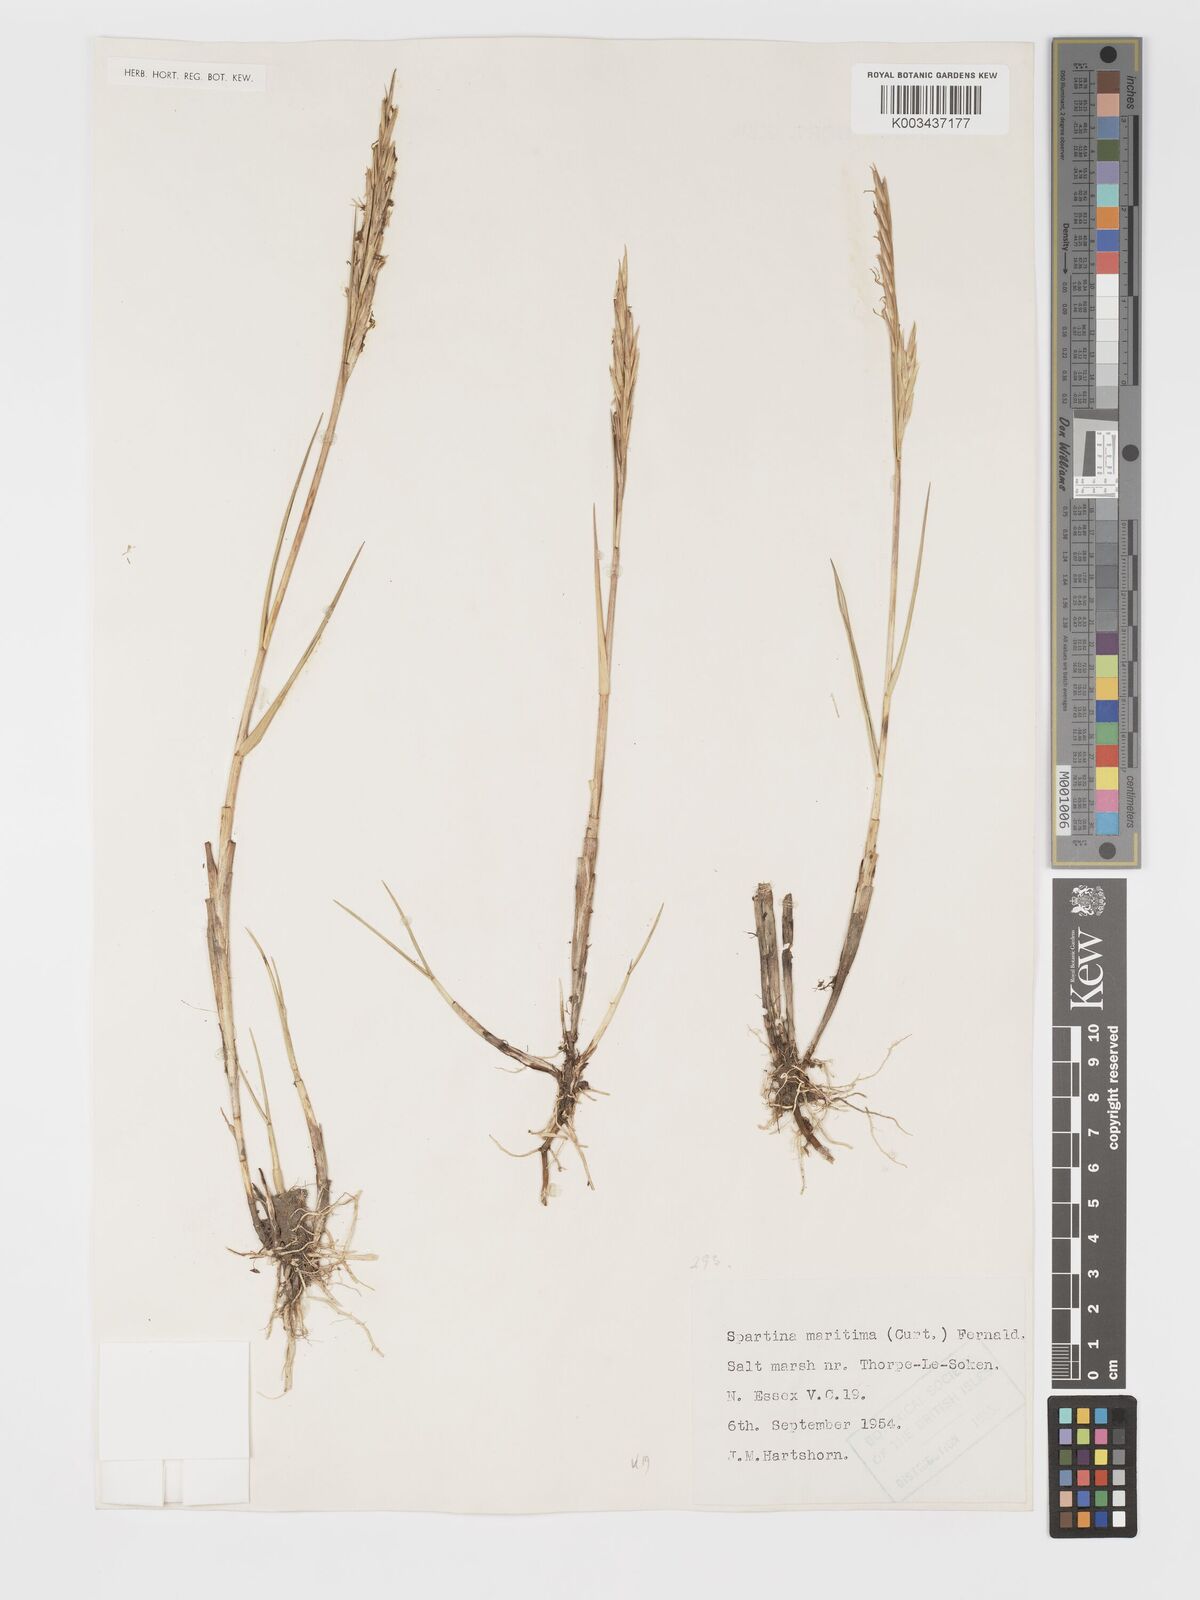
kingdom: Plantae
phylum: Tracheophyta
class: Liliopsida
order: Poales
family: Poaceae
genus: Sporobolus
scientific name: Sporobolus maritimus
